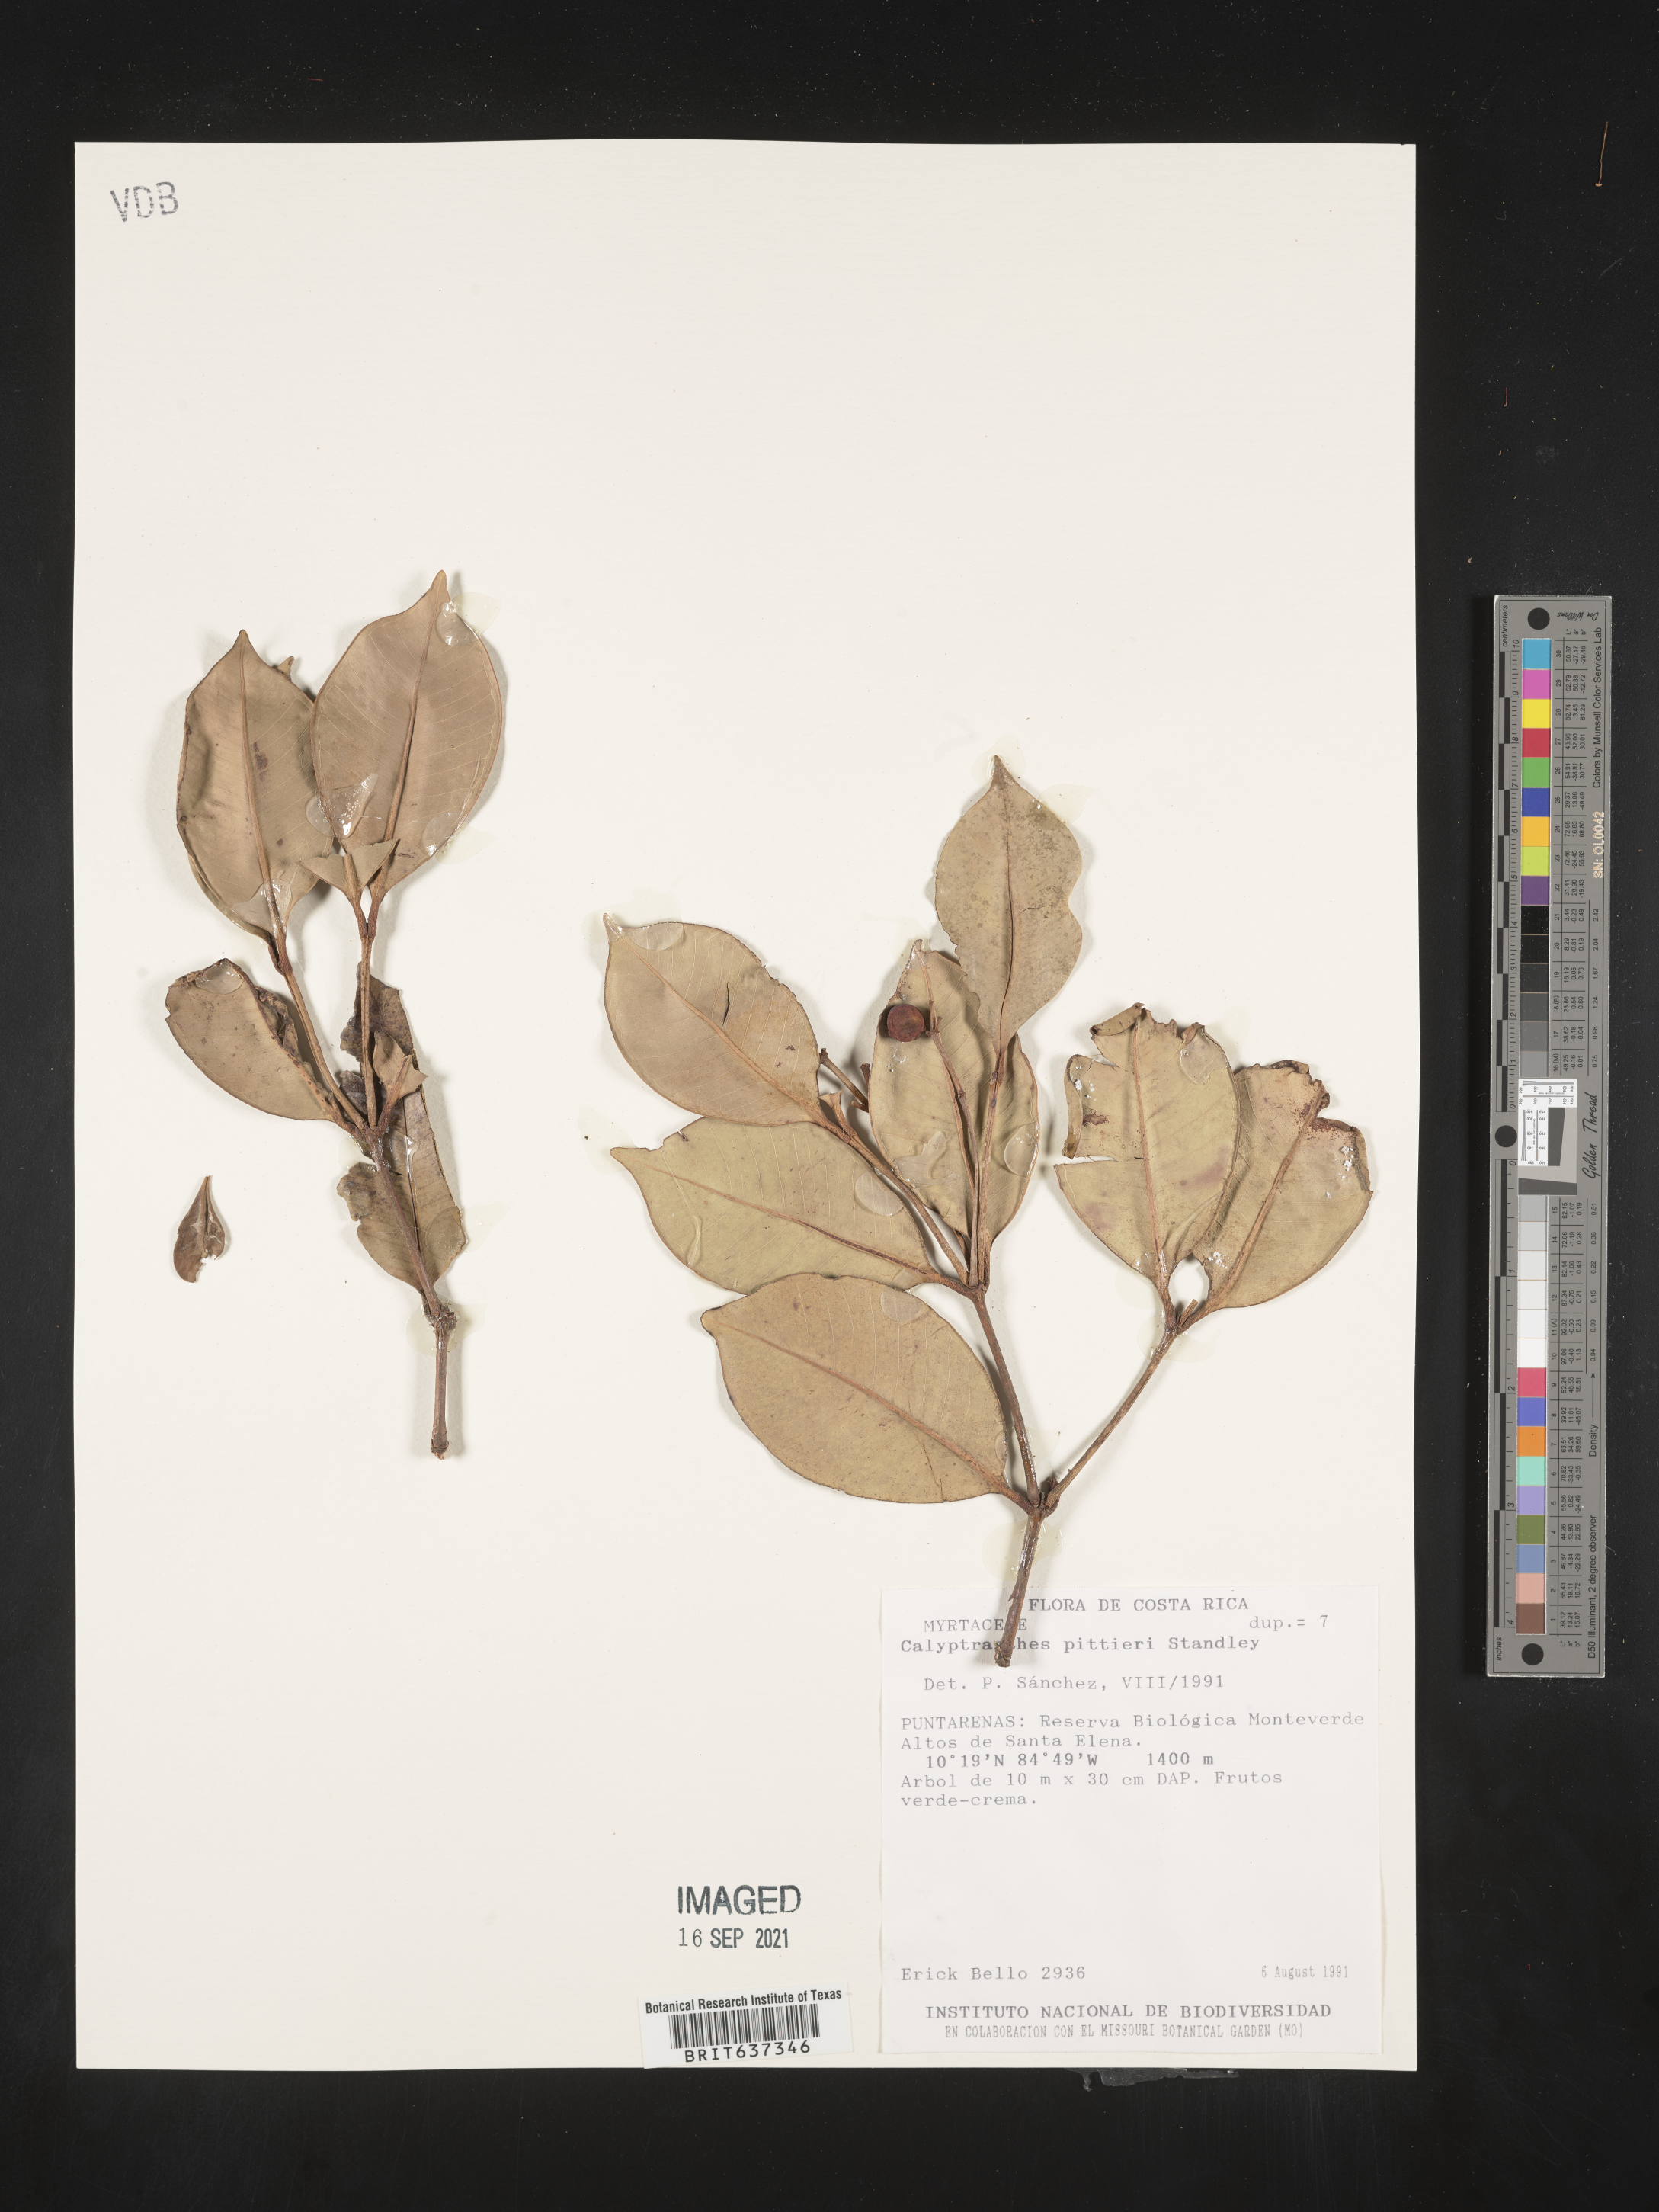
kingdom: Plantae
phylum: Tracheophyta
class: Magnoliopsida
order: Myrtales
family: Myrtaceae
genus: Calyptranthes
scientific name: Calyptranthes
